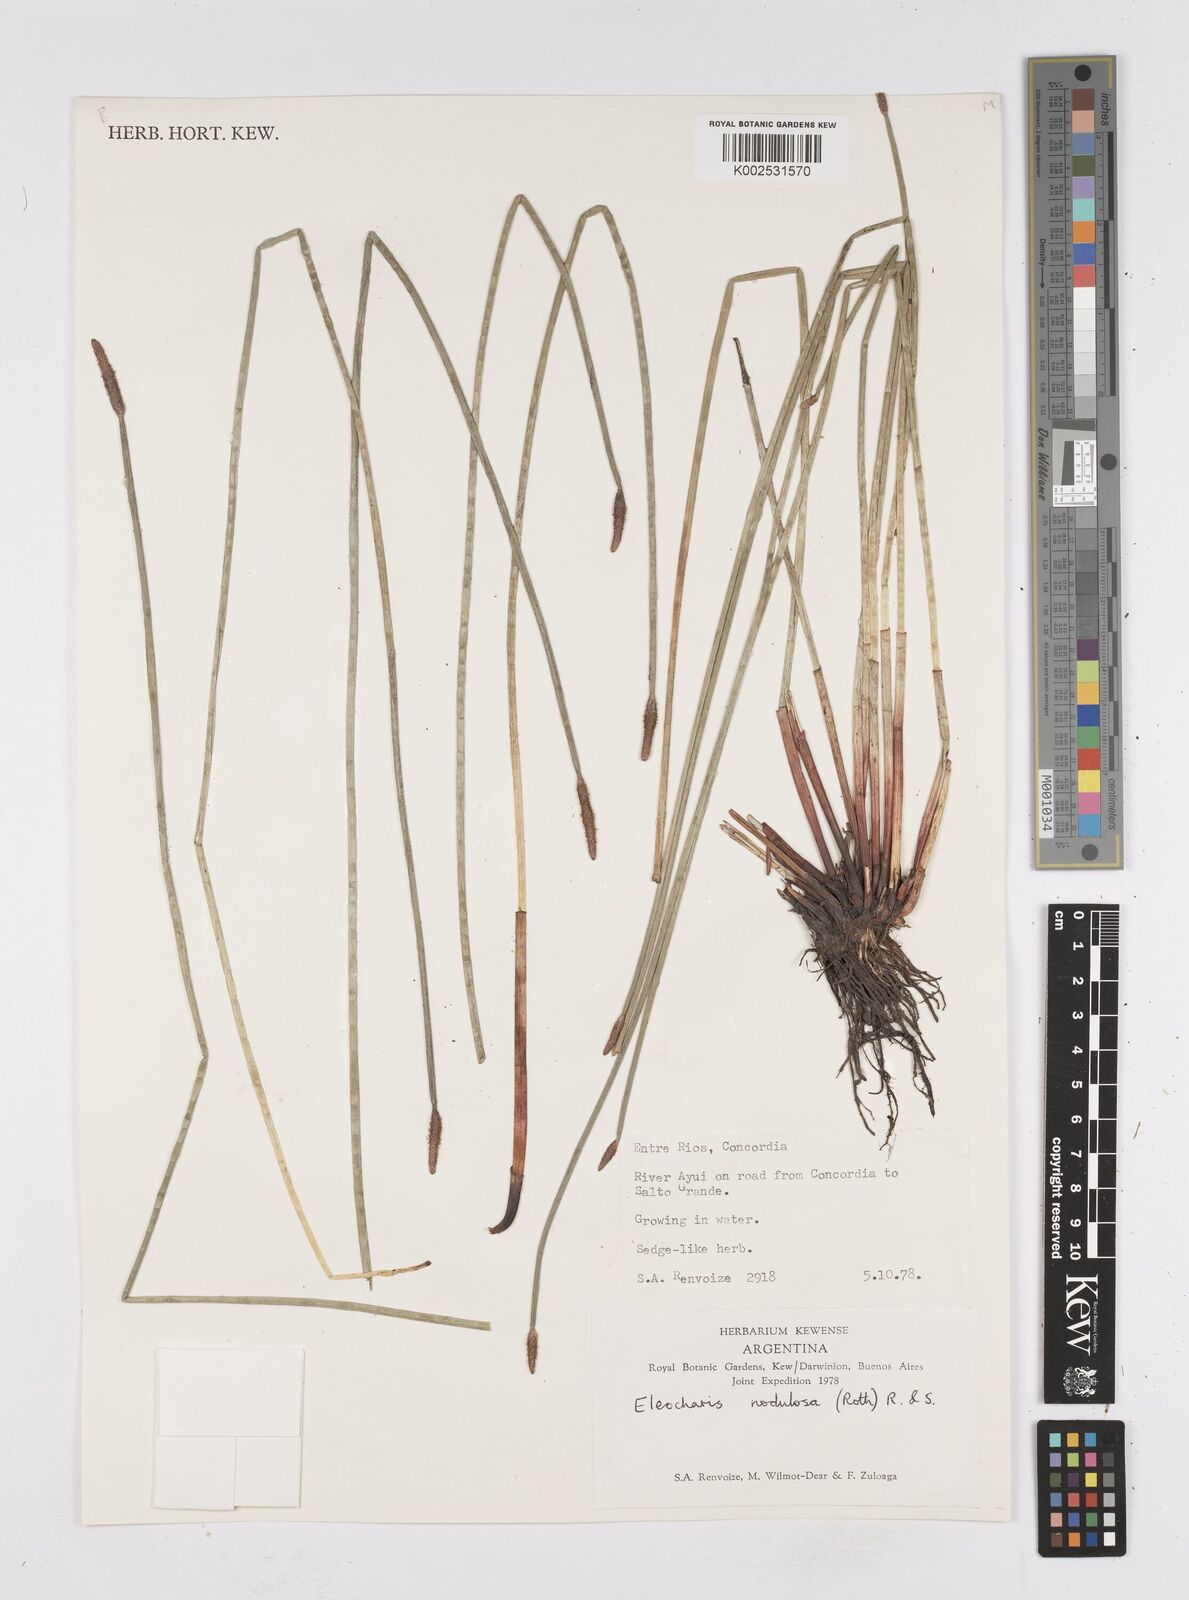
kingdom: Plantae
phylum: Tracheophyta
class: Liliopsida
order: Poales
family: Cyperaceae
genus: Eleocharis
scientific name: Eleocharis montana
